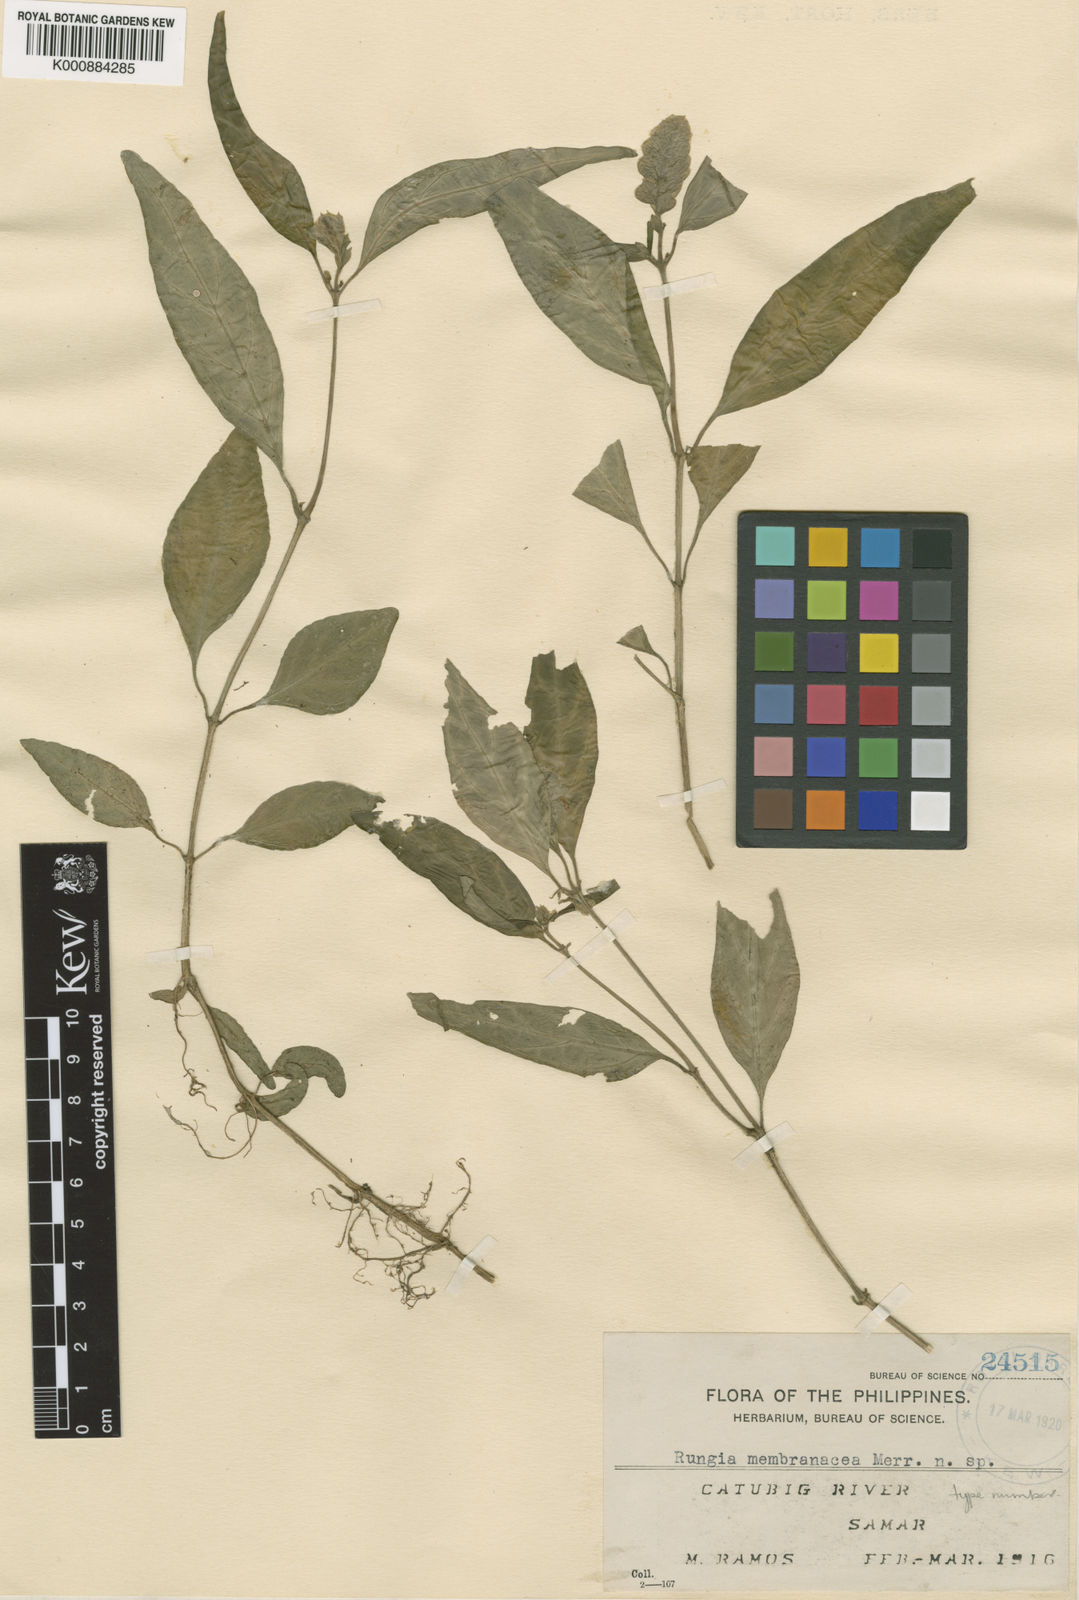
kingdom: Plantae
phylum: Tracheophyta
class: Magnoliopsida
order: Lamiales
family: Acanthaceae
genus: Justicia
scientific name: Justicia polystachya
